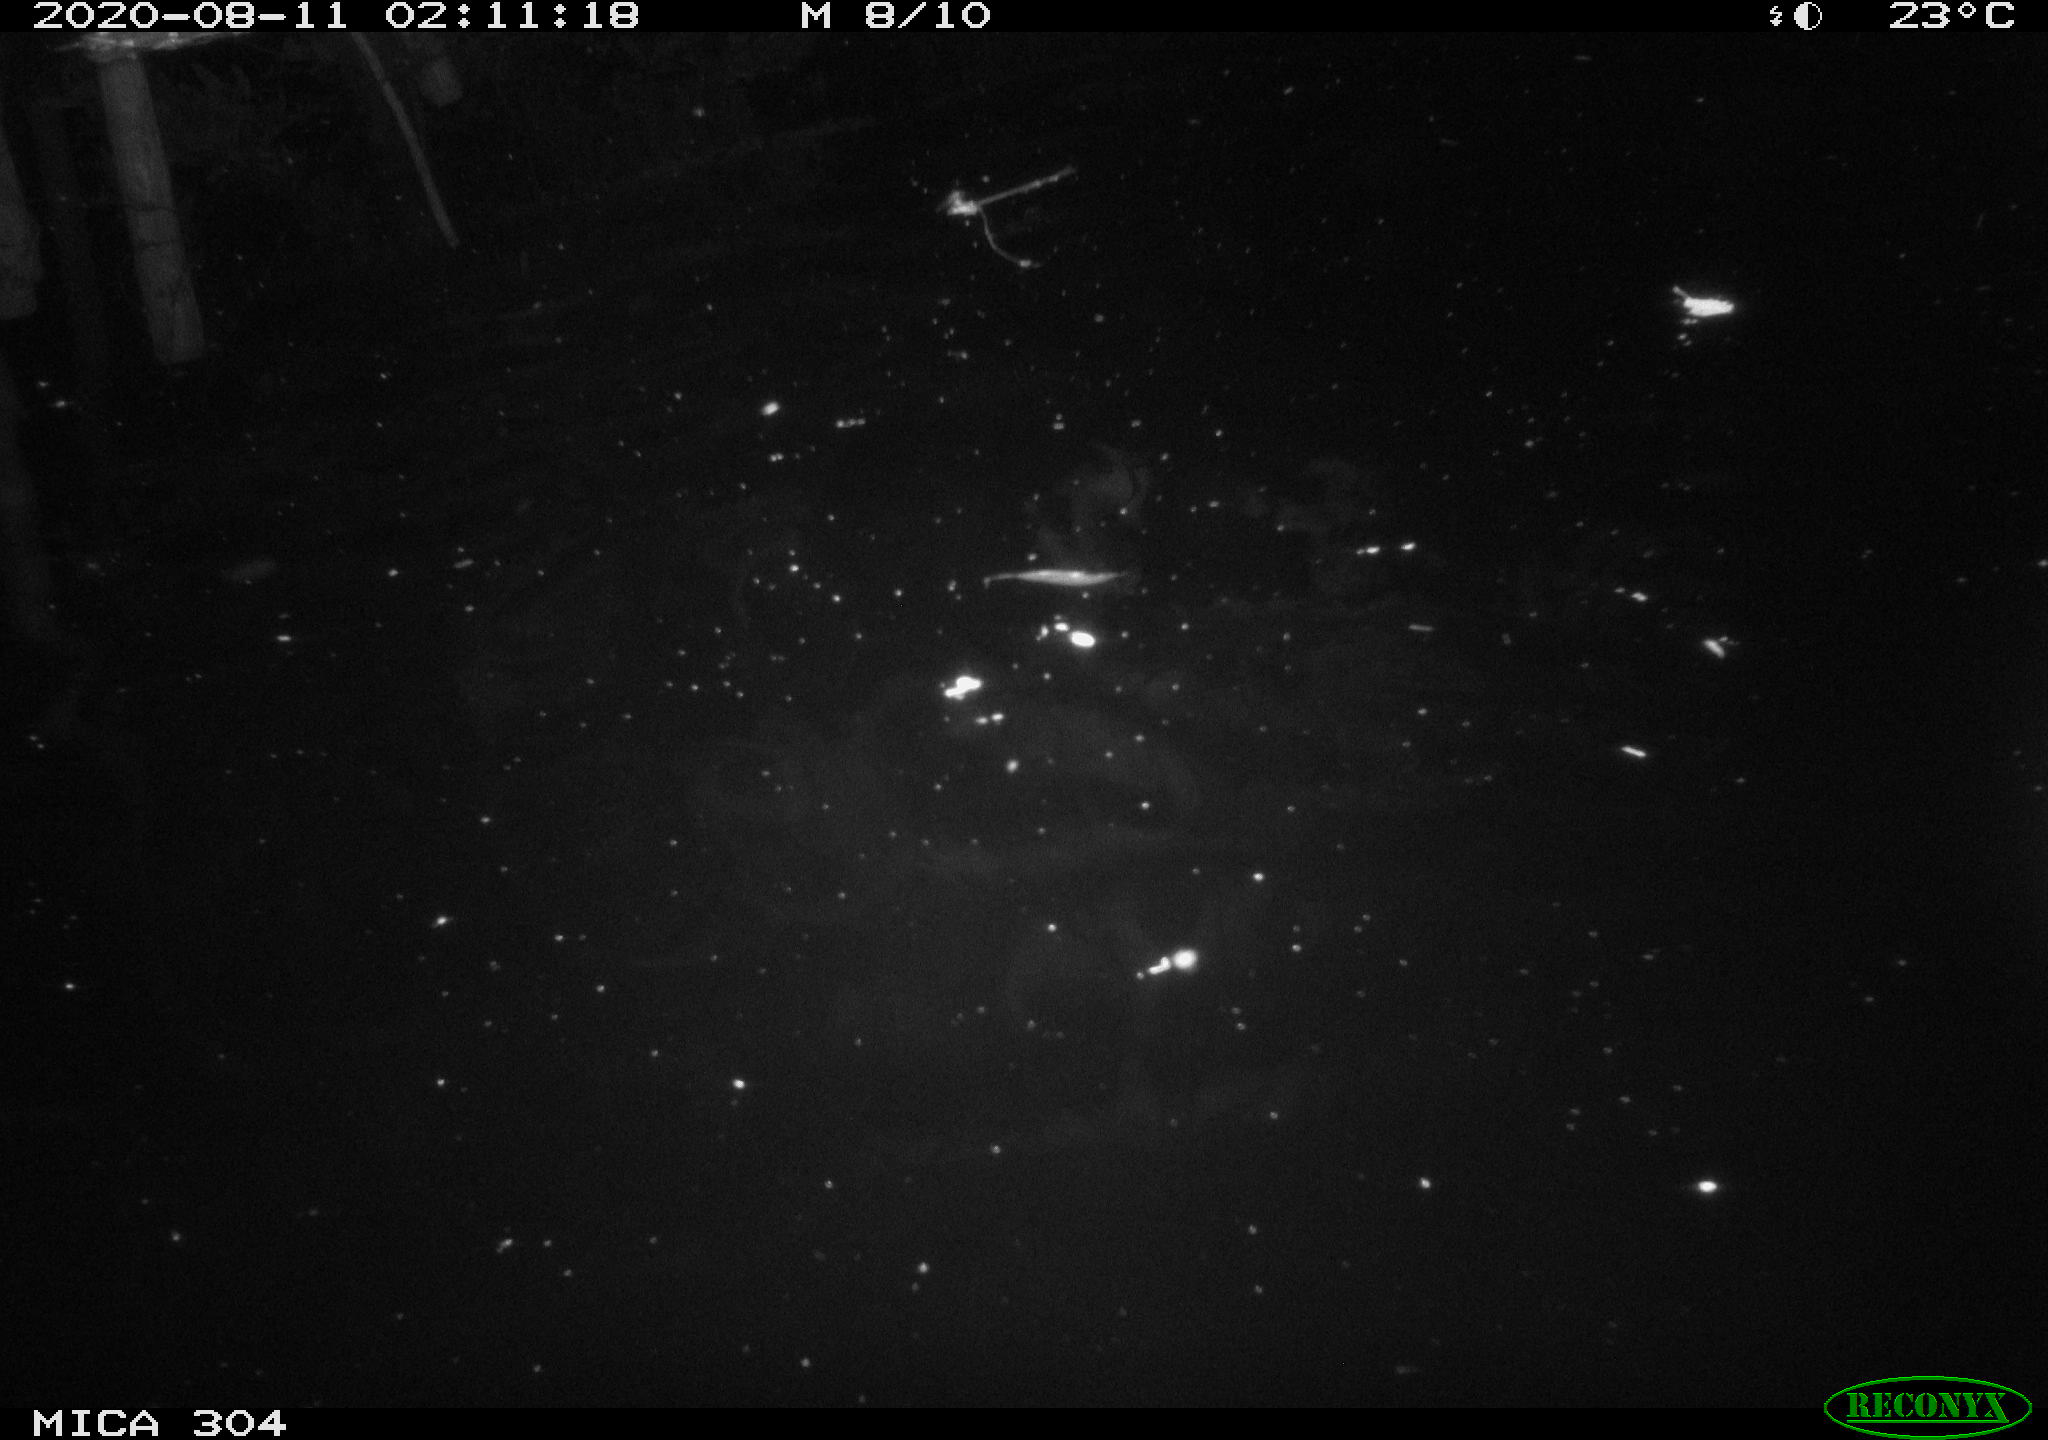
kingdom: Animalia
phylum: Chordata
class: Mammalia
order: Rodentia
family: Cricetidae
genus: Ondatra
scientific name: Ondatra zibethicus
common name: Muskrat
